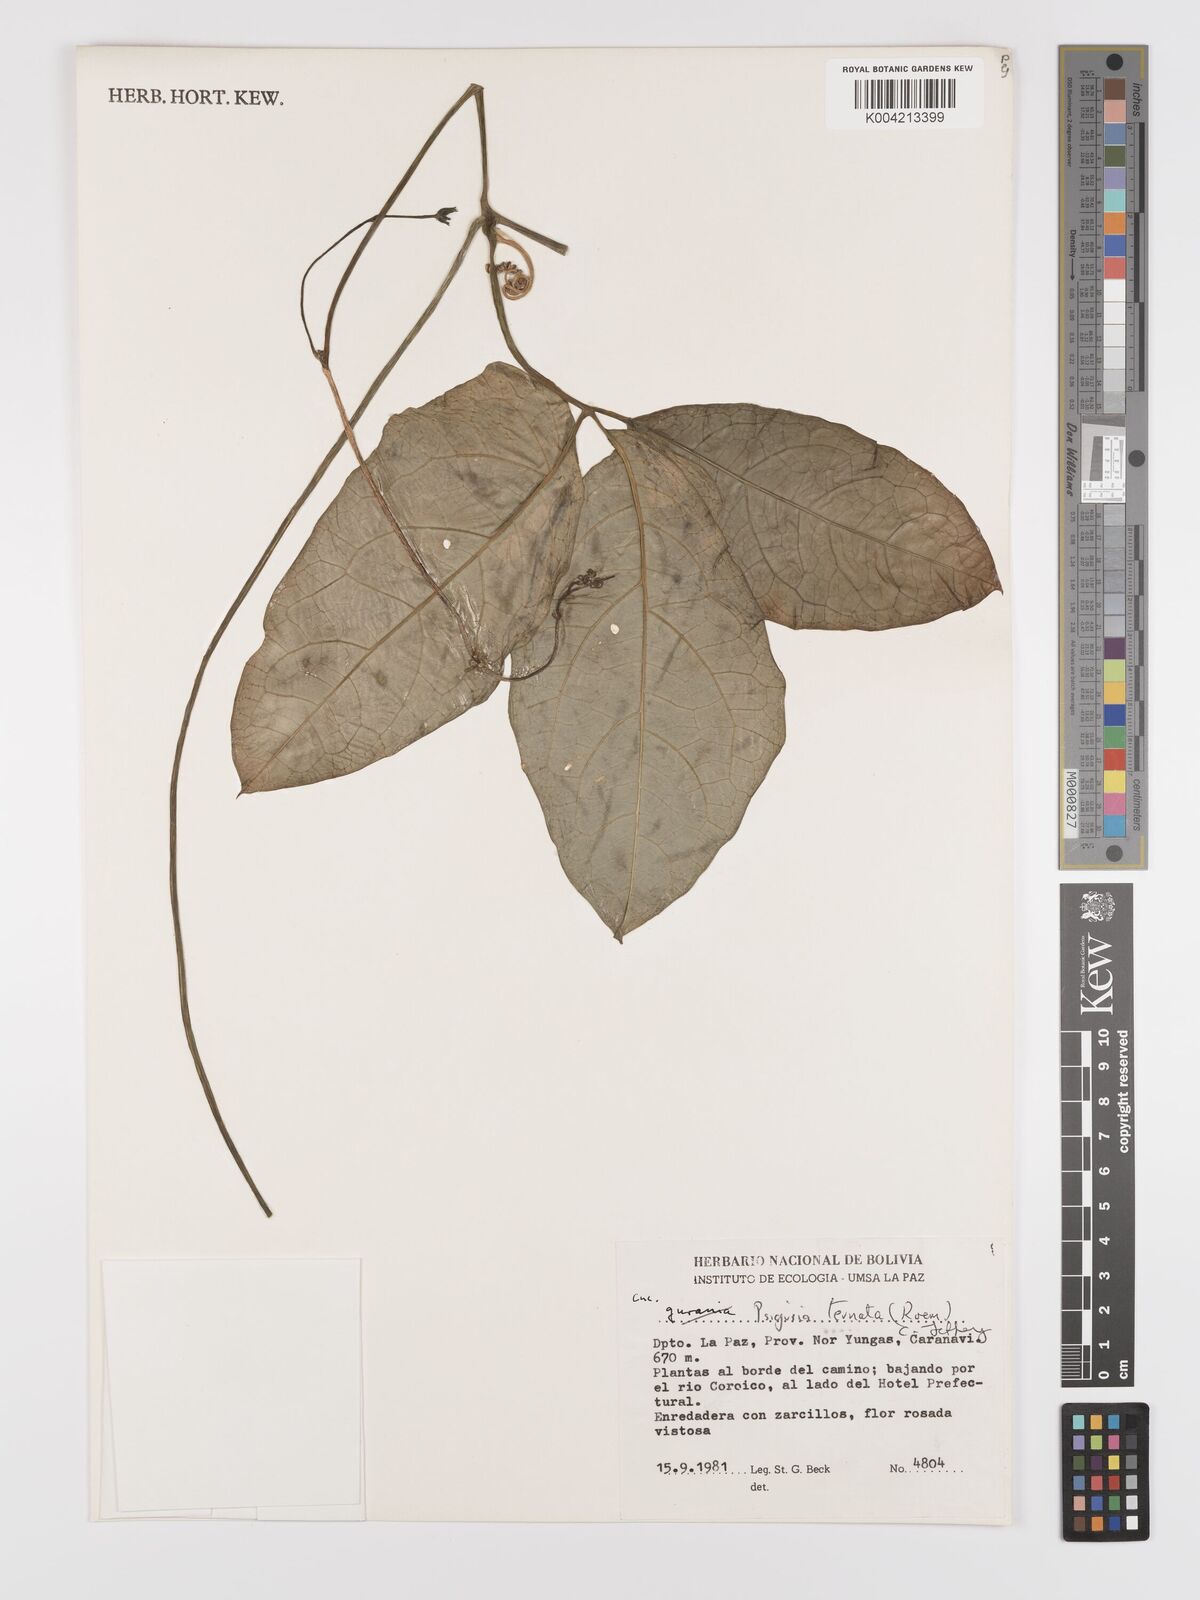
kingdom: Plantae
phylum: Tracheophyta
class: Magnoliopsida
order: Cucurbitales
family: Cucurbitaceae
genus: Psiguria
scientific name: Psiguria ternata
